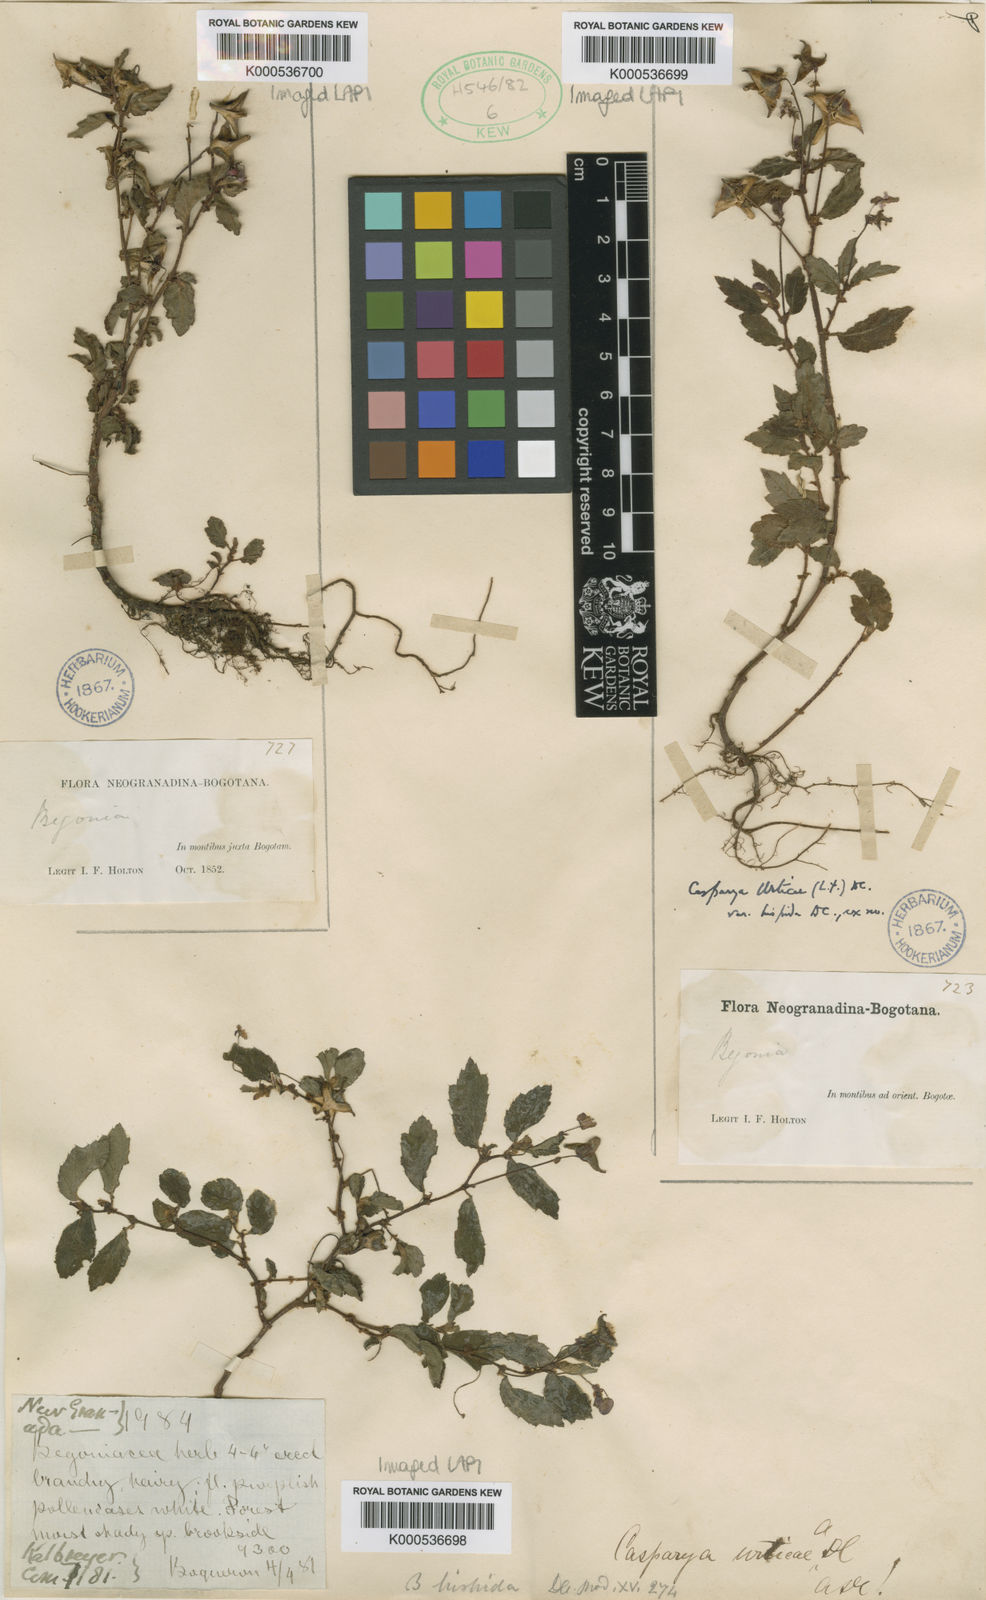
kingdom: Plantae
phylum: Tracheophyta
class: Magnoliopsida
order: Cucurbitales
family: Begoniaceae
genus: Begonia
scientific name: Begonia urticae
